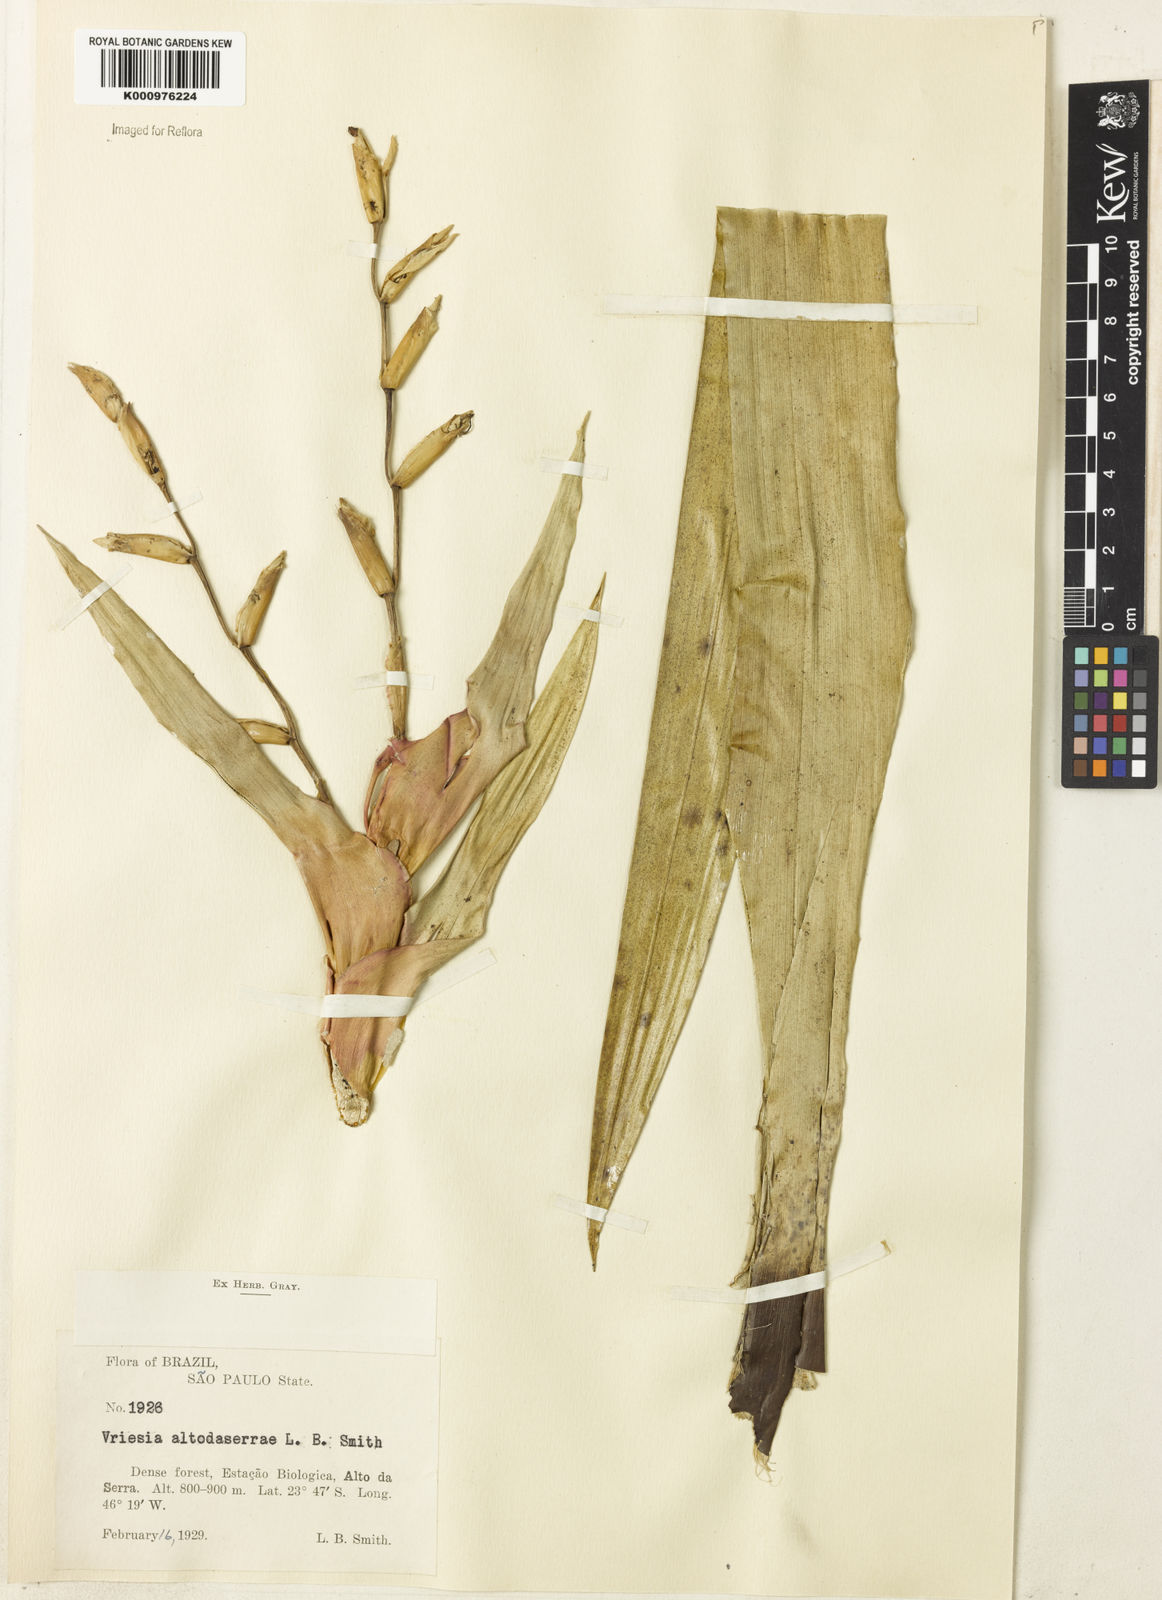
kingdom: Plantae
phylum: Tracheophyta
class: Liliopsida
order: Poales
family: Bromeliaceae
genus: Vriesea
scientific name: Vriesea altodaserrae
